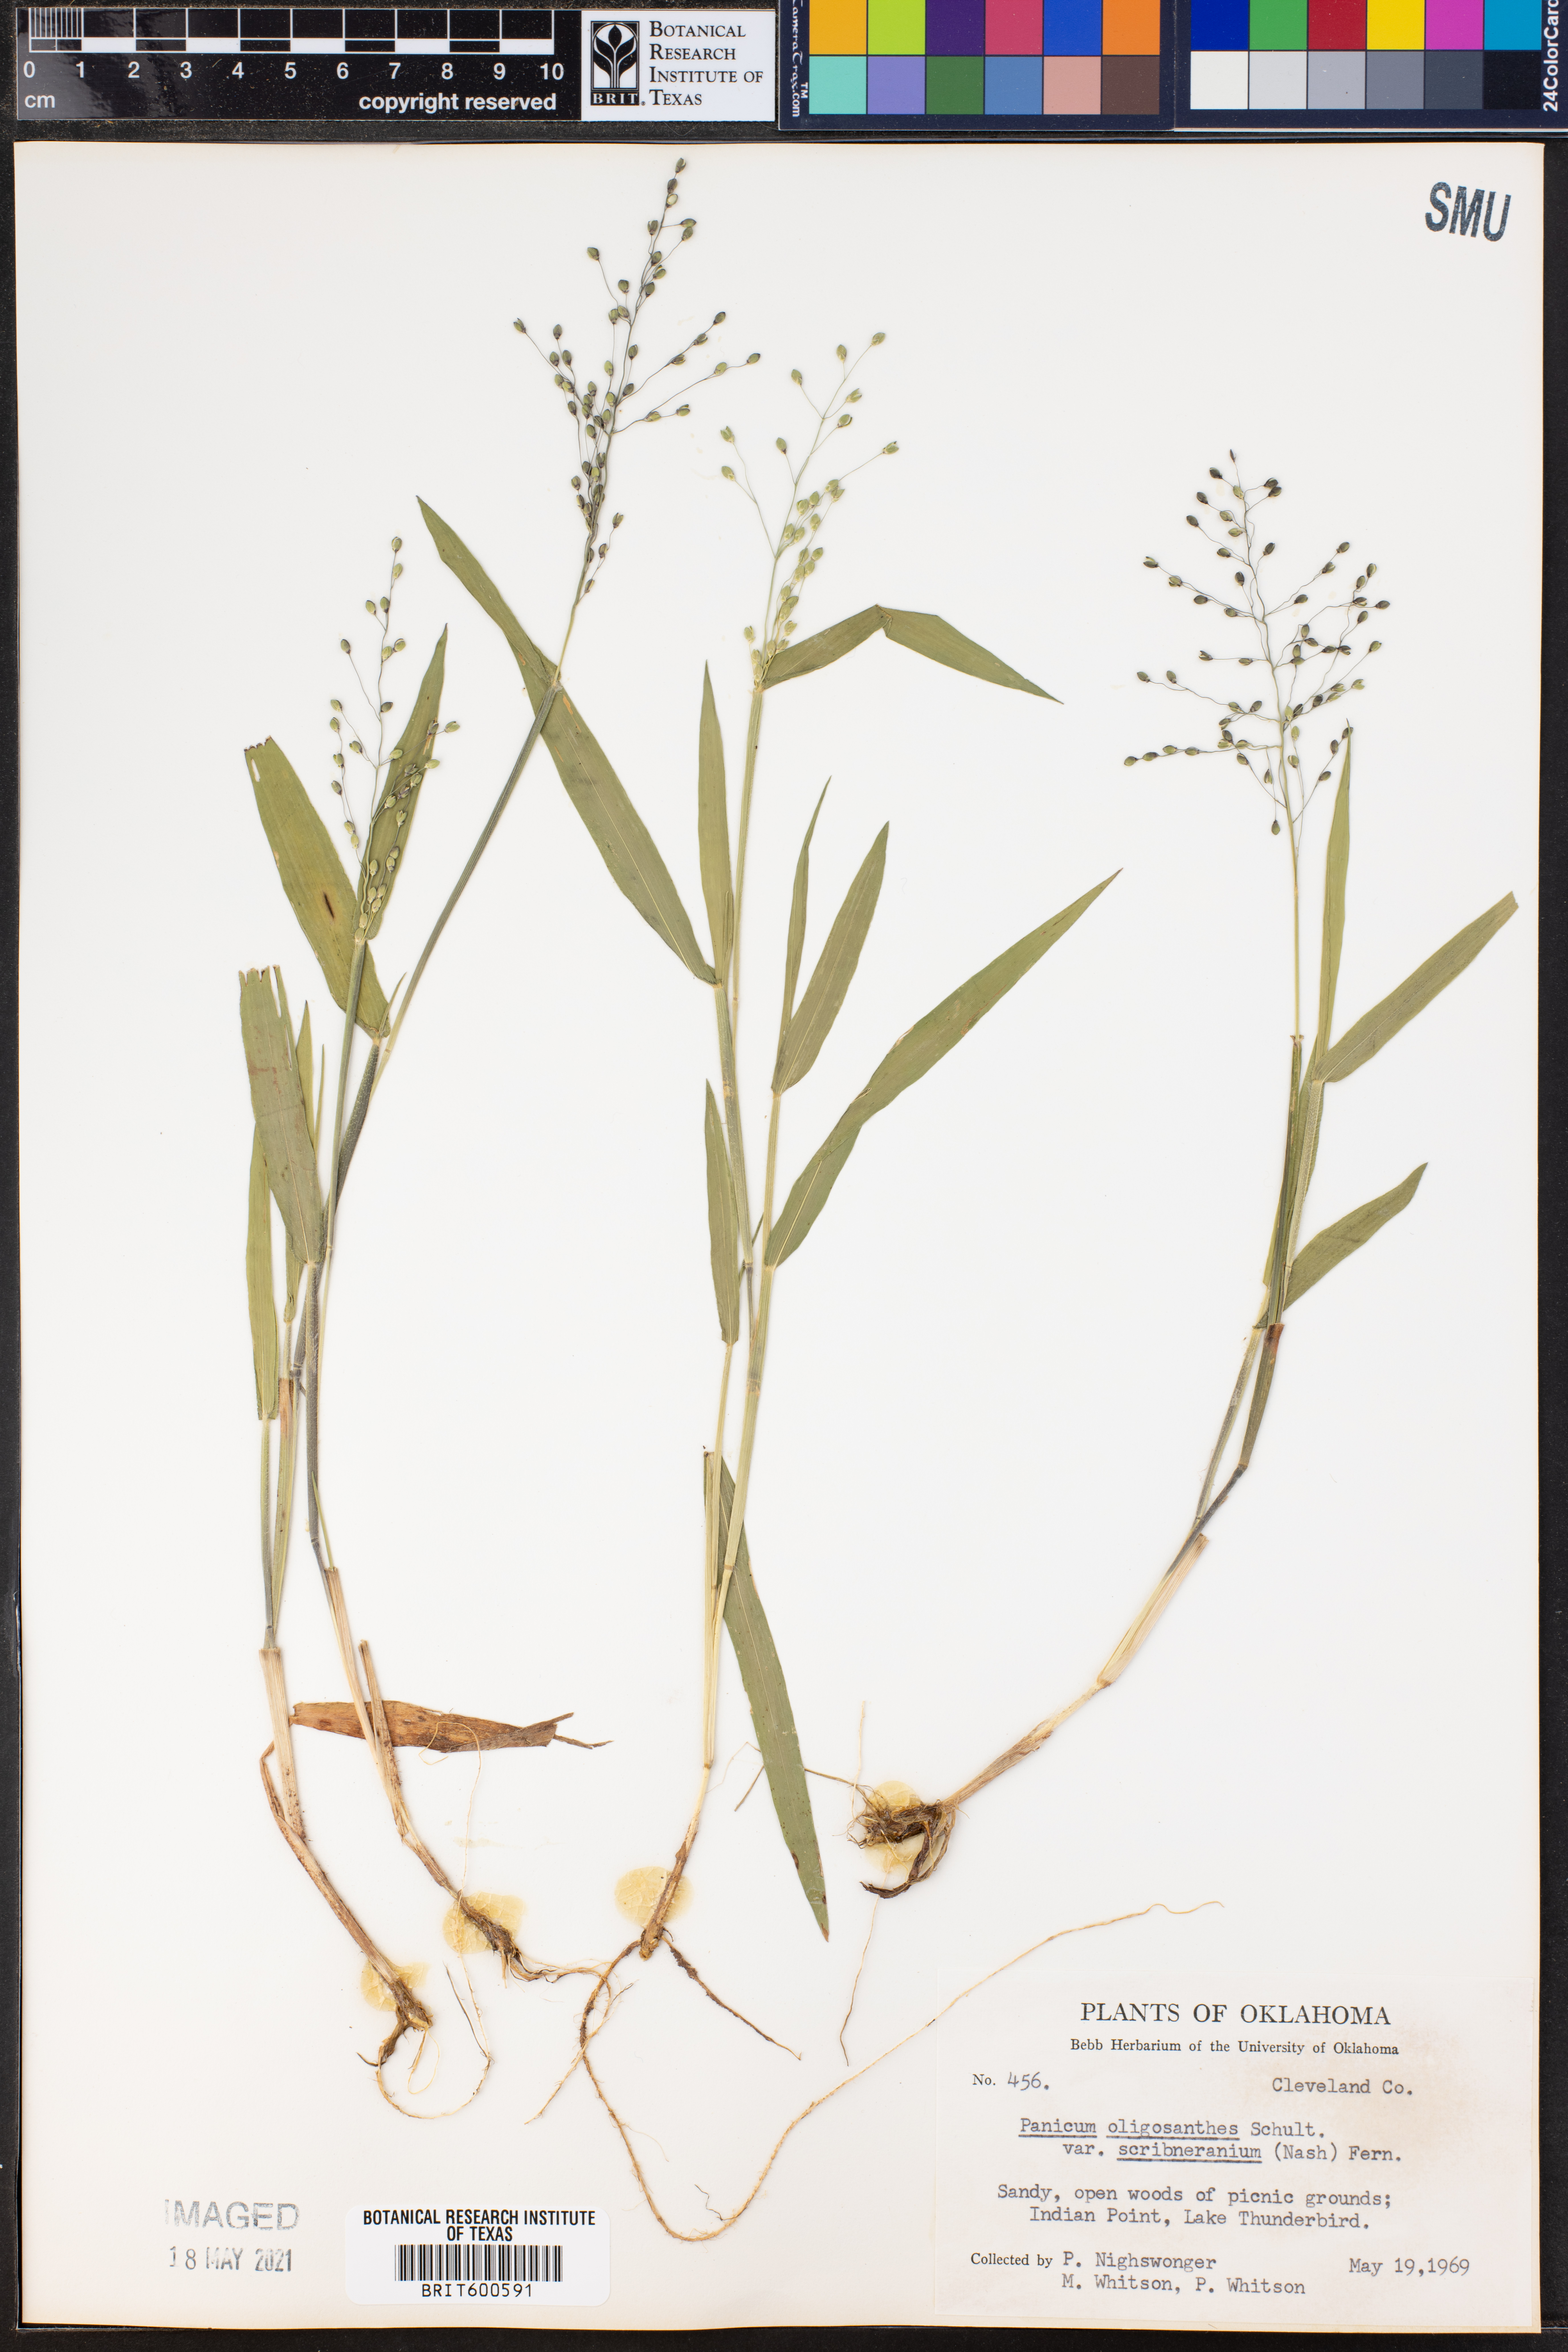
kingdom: Plantae
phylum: Tracheophyta
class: Liliopsida
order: Poales
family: Poaceae
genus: Dichanthelium
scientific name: Dichanthelium scribnerianum
